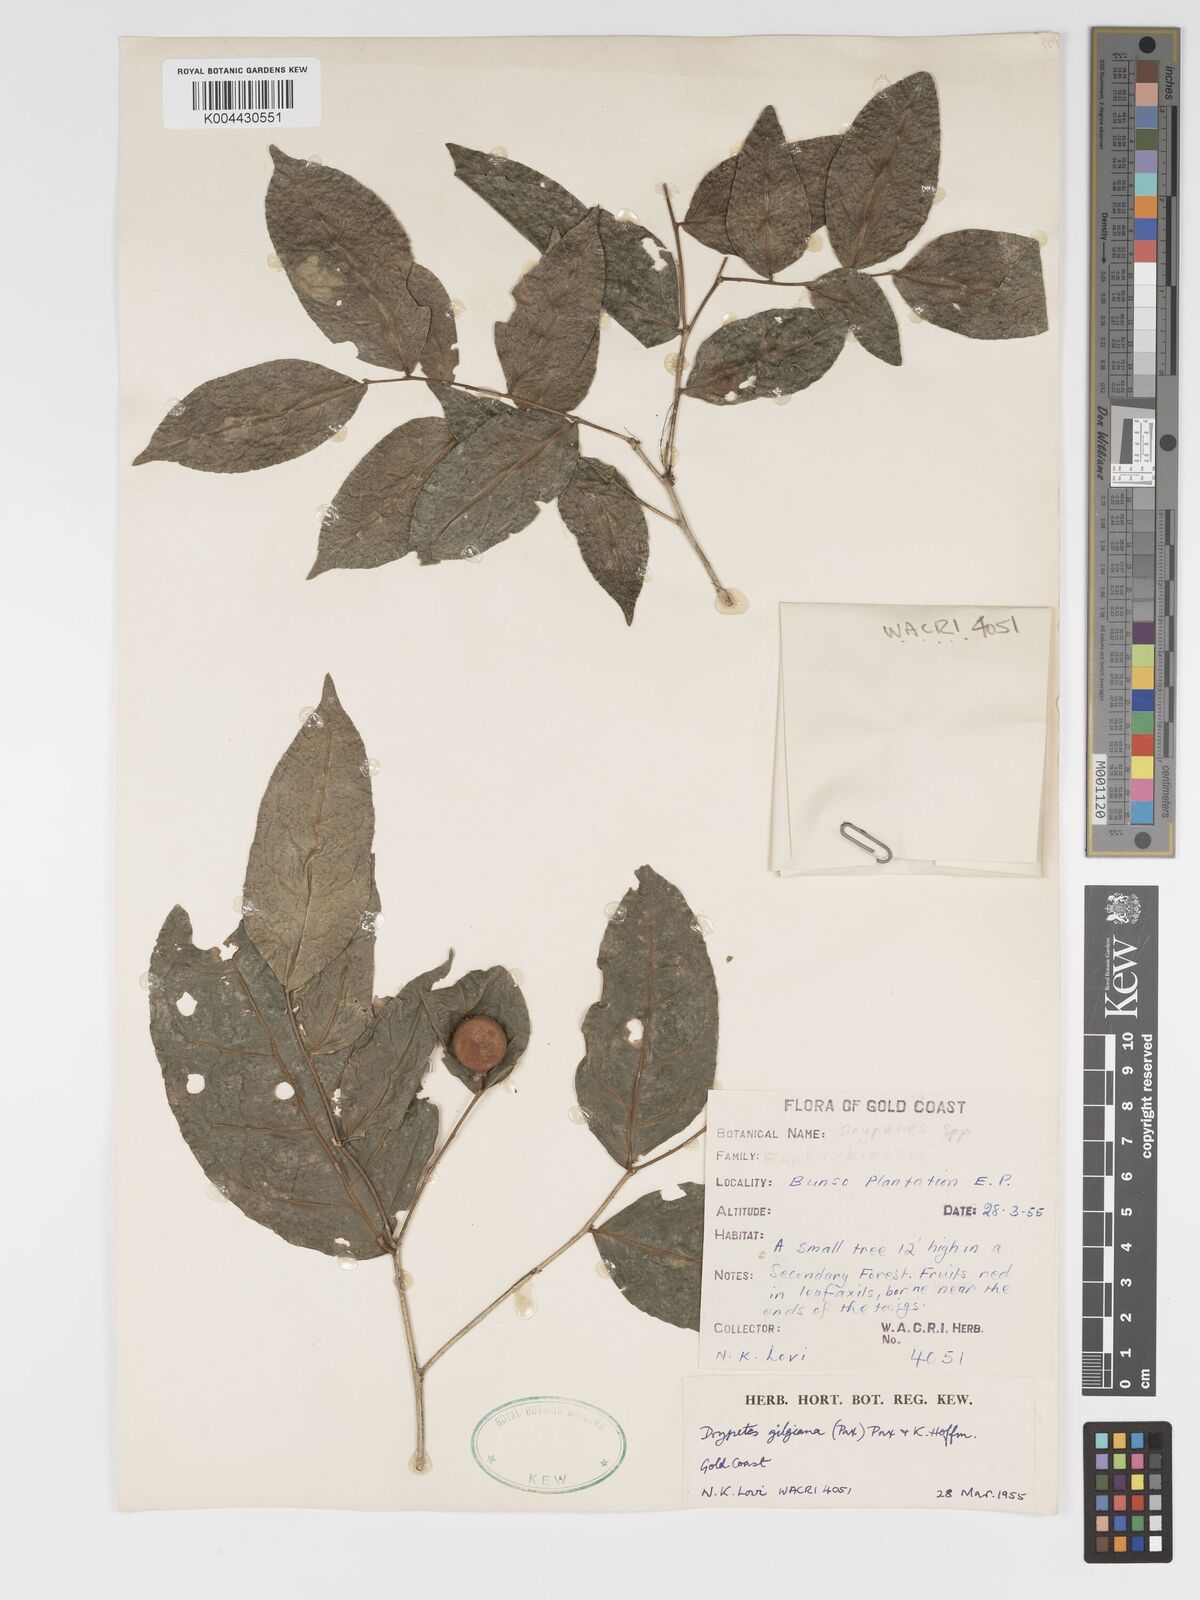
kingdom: Plantae
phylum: Tracheophyta
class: Magnoliopsida
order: Malpighiales
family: Putranjivaceae
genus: Drypetes
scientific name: Drypetes gilgiana
